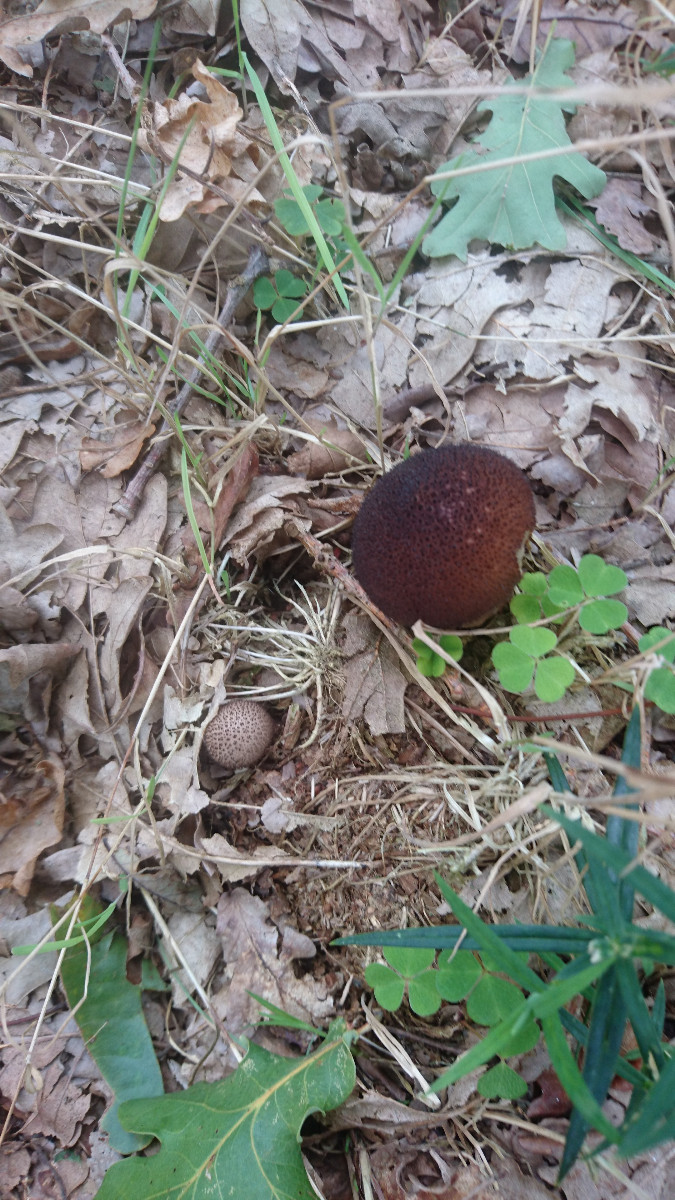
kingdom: Fungi
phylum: Basidiomycota
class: Agaricomycetes
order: Agaricales
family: Lycoperdaceae
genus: Lycoperdon
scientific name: Lycoperdon nigrescens
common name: sortagtig støvbold
